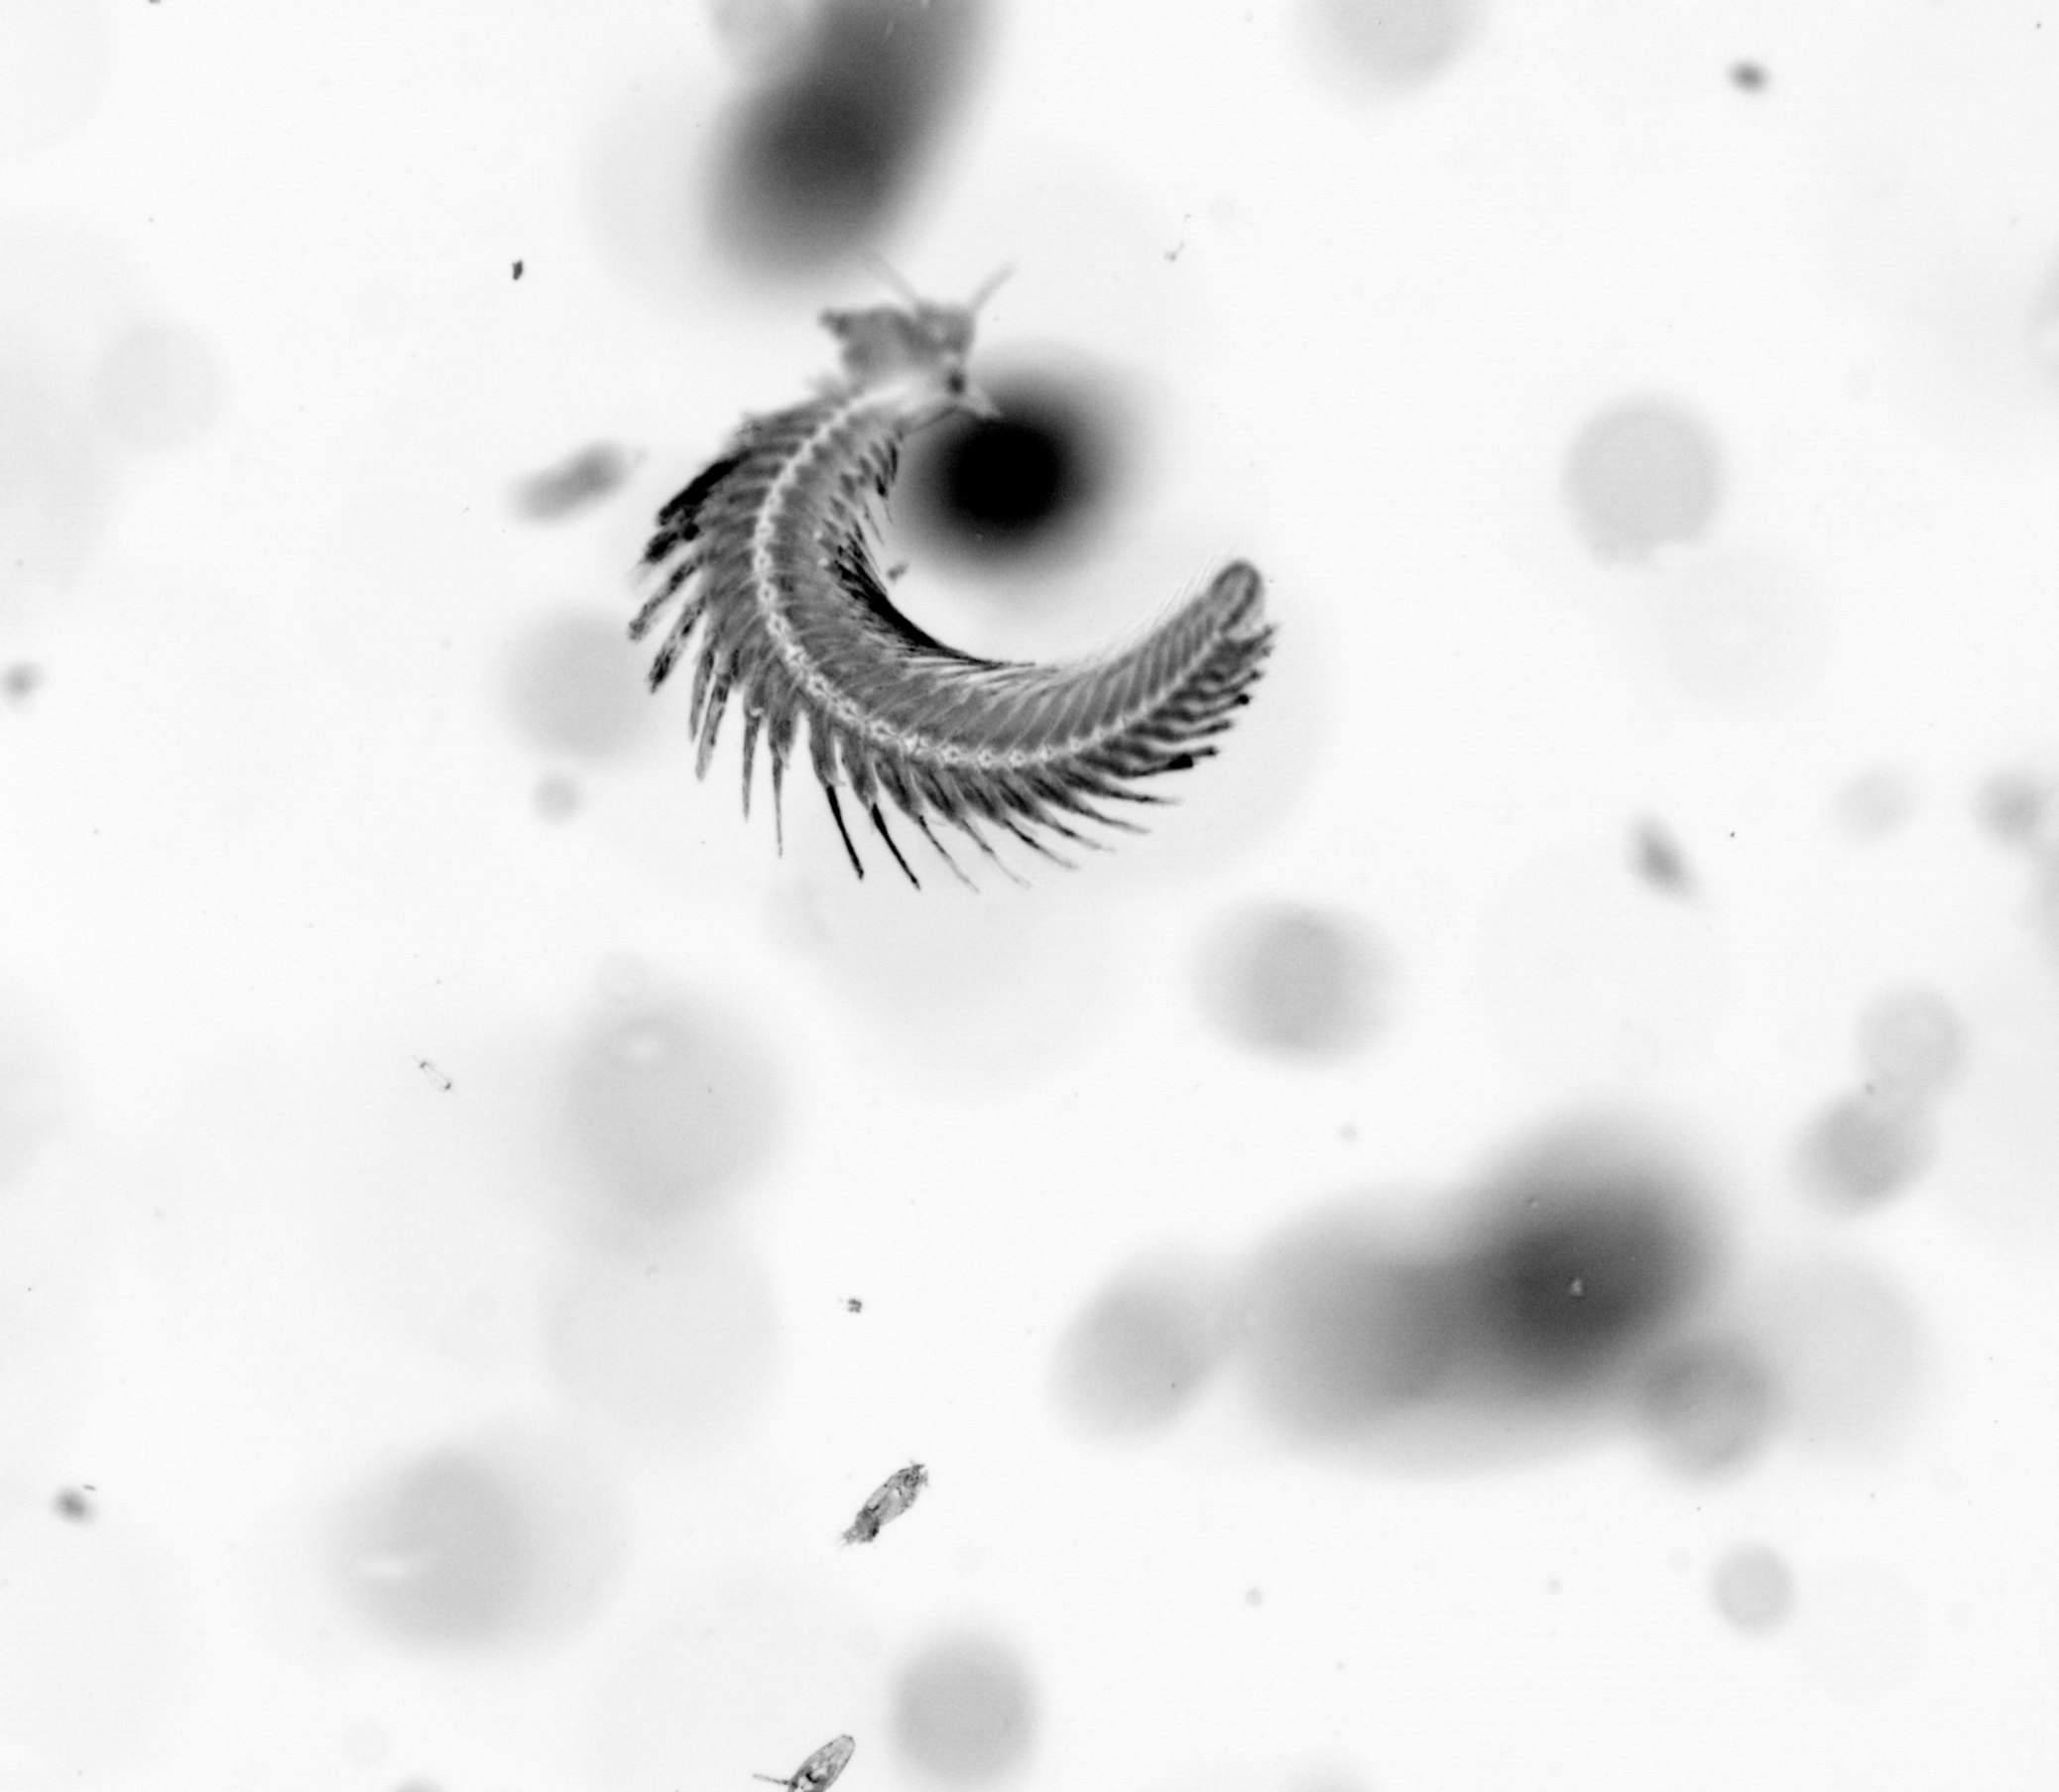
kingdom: Animalia
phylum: Annelida
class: Polychaeta
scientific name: Polychaeta
